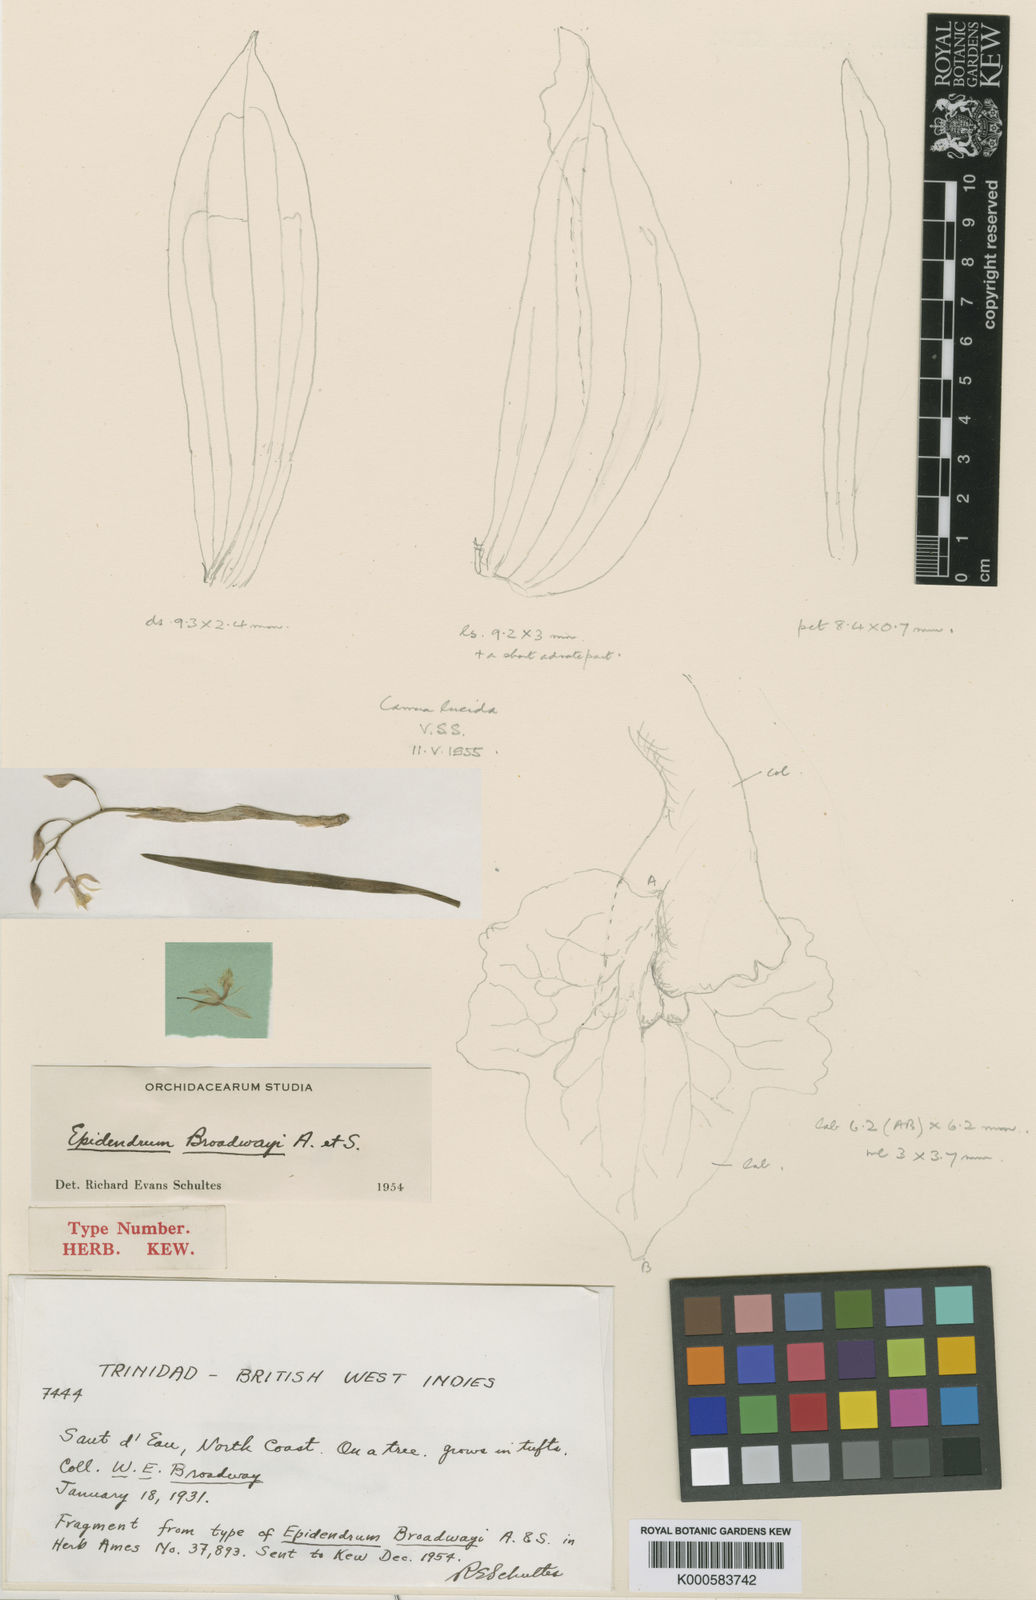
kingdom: Plantae
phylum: Tracheophyta
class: Liliopsida
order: Asparagales
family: Orchidaceae
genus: Epidendrum
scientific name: Epidendrum tipuloideum
